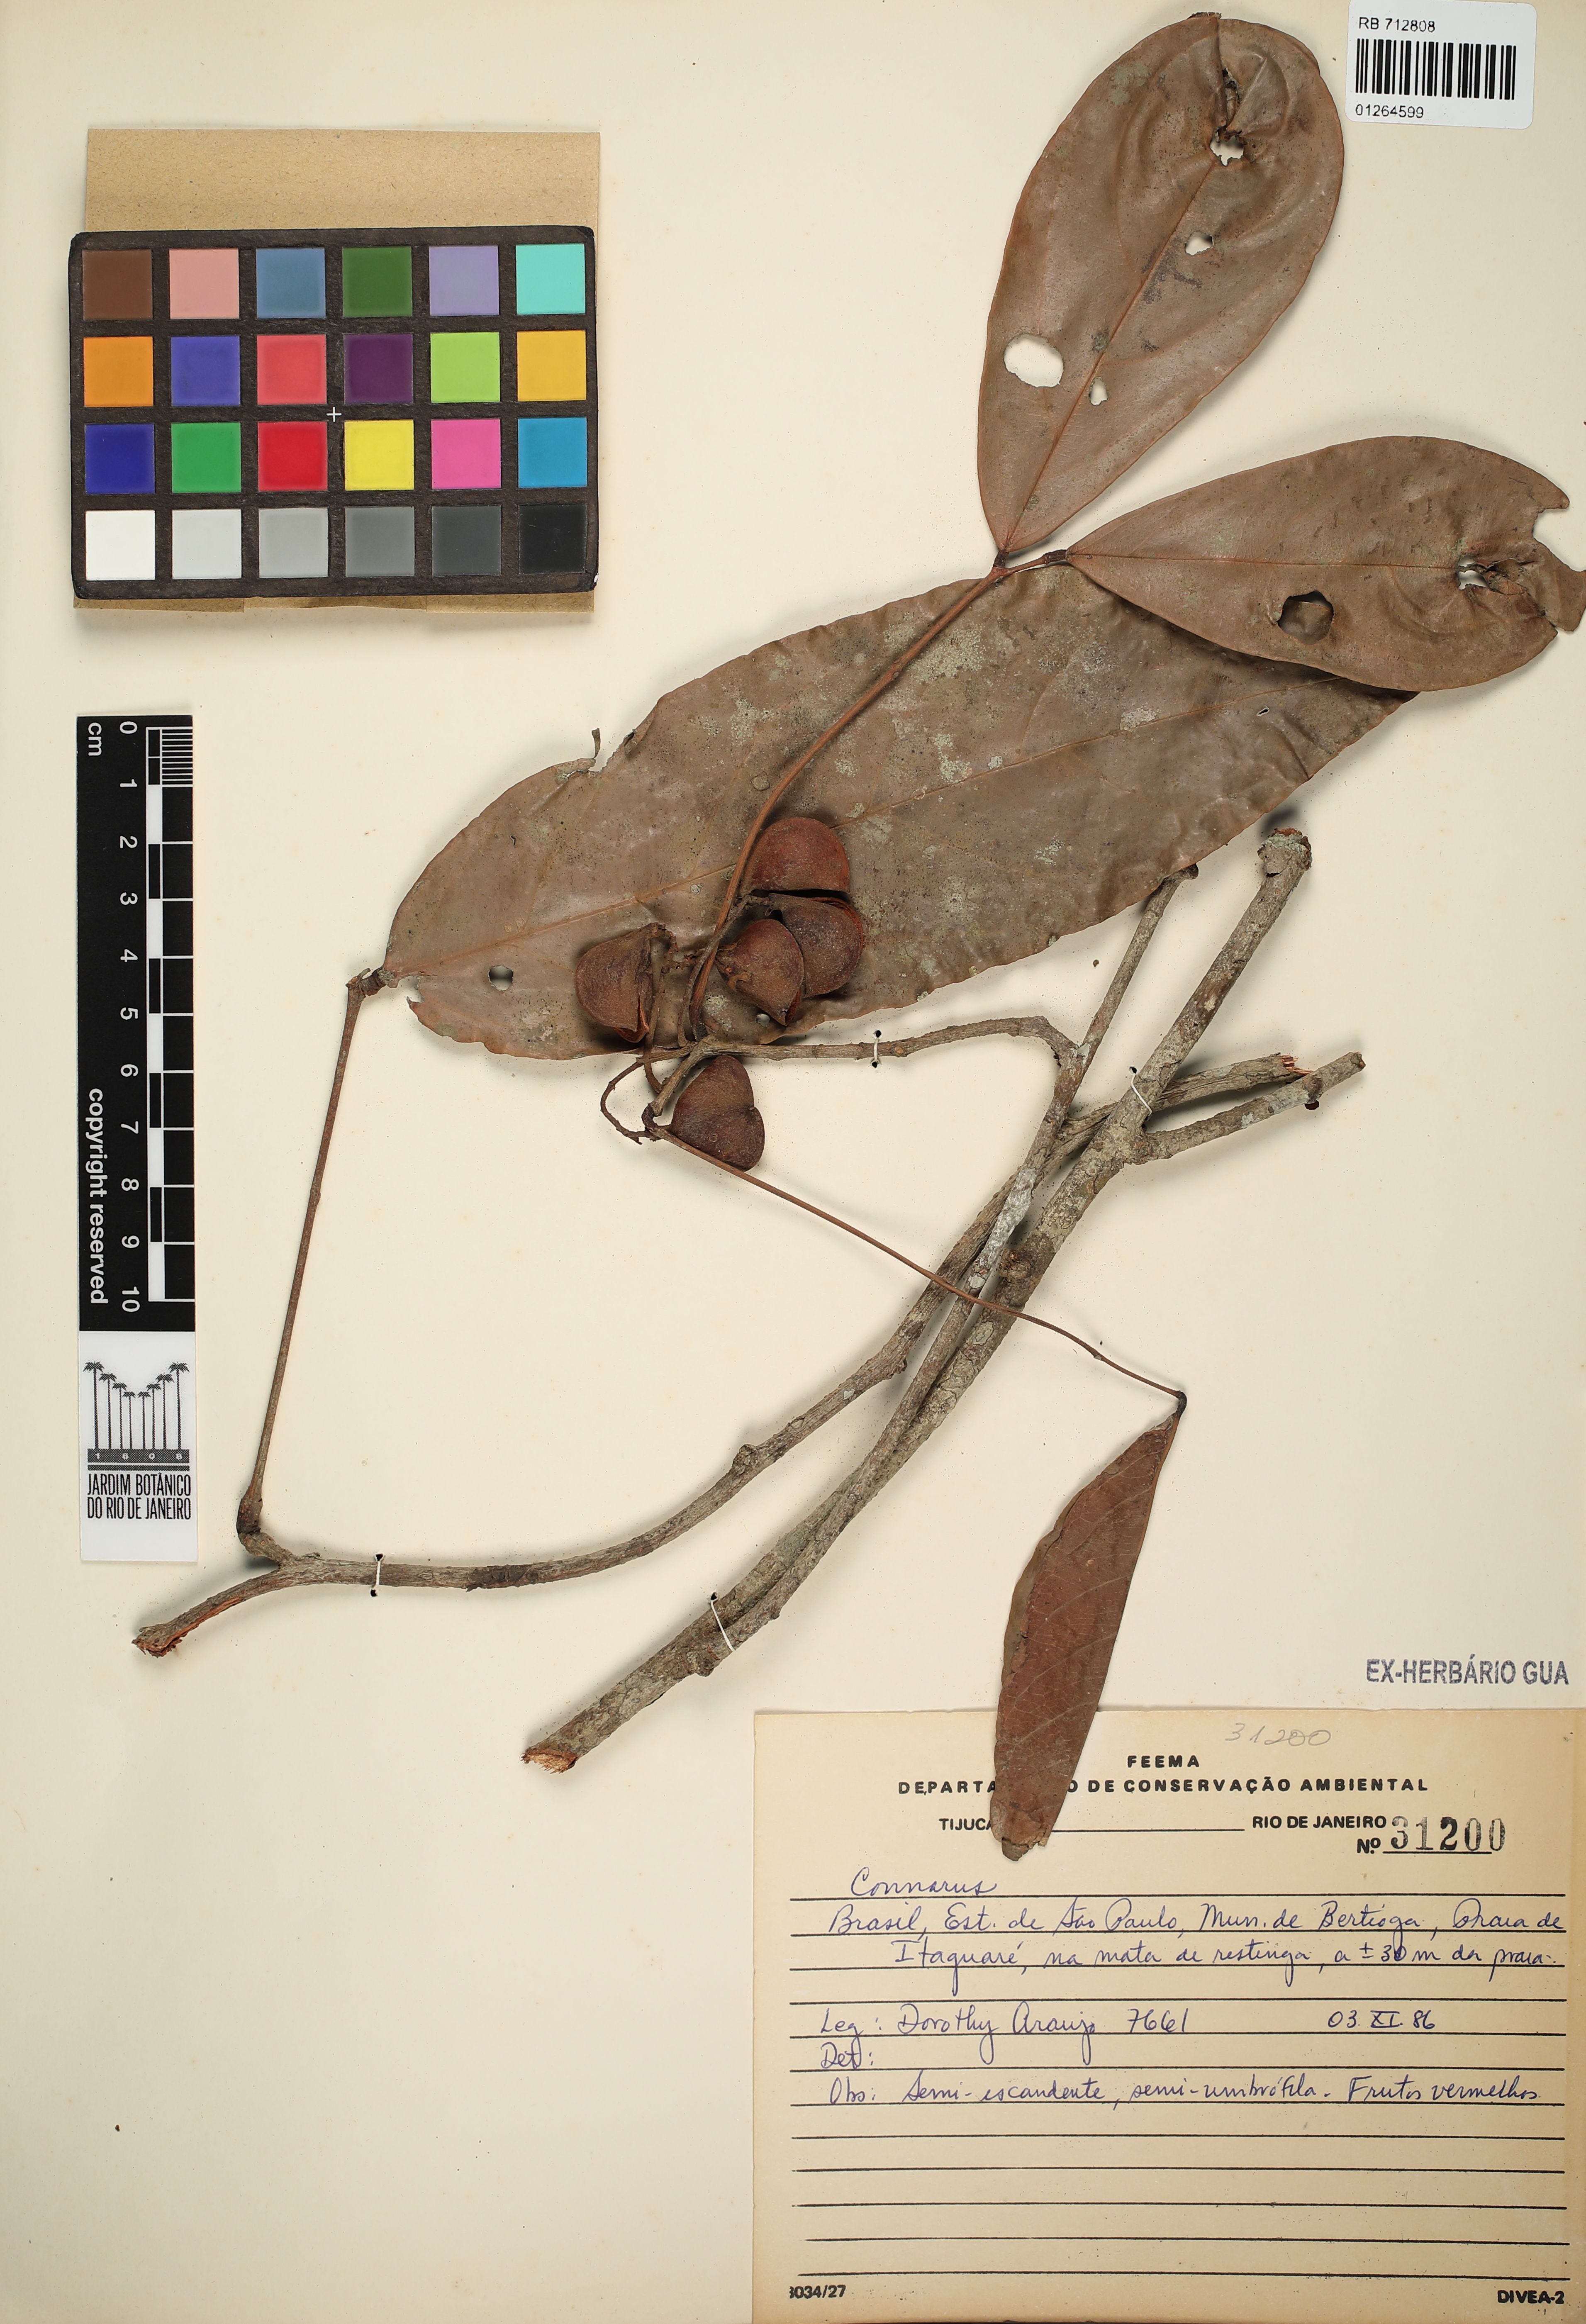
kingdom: Plantae
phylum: Tracheophyta
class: Magnoliopsida
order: Oxalidales
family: Connaraceae
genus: Connarus
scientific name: Connarus
